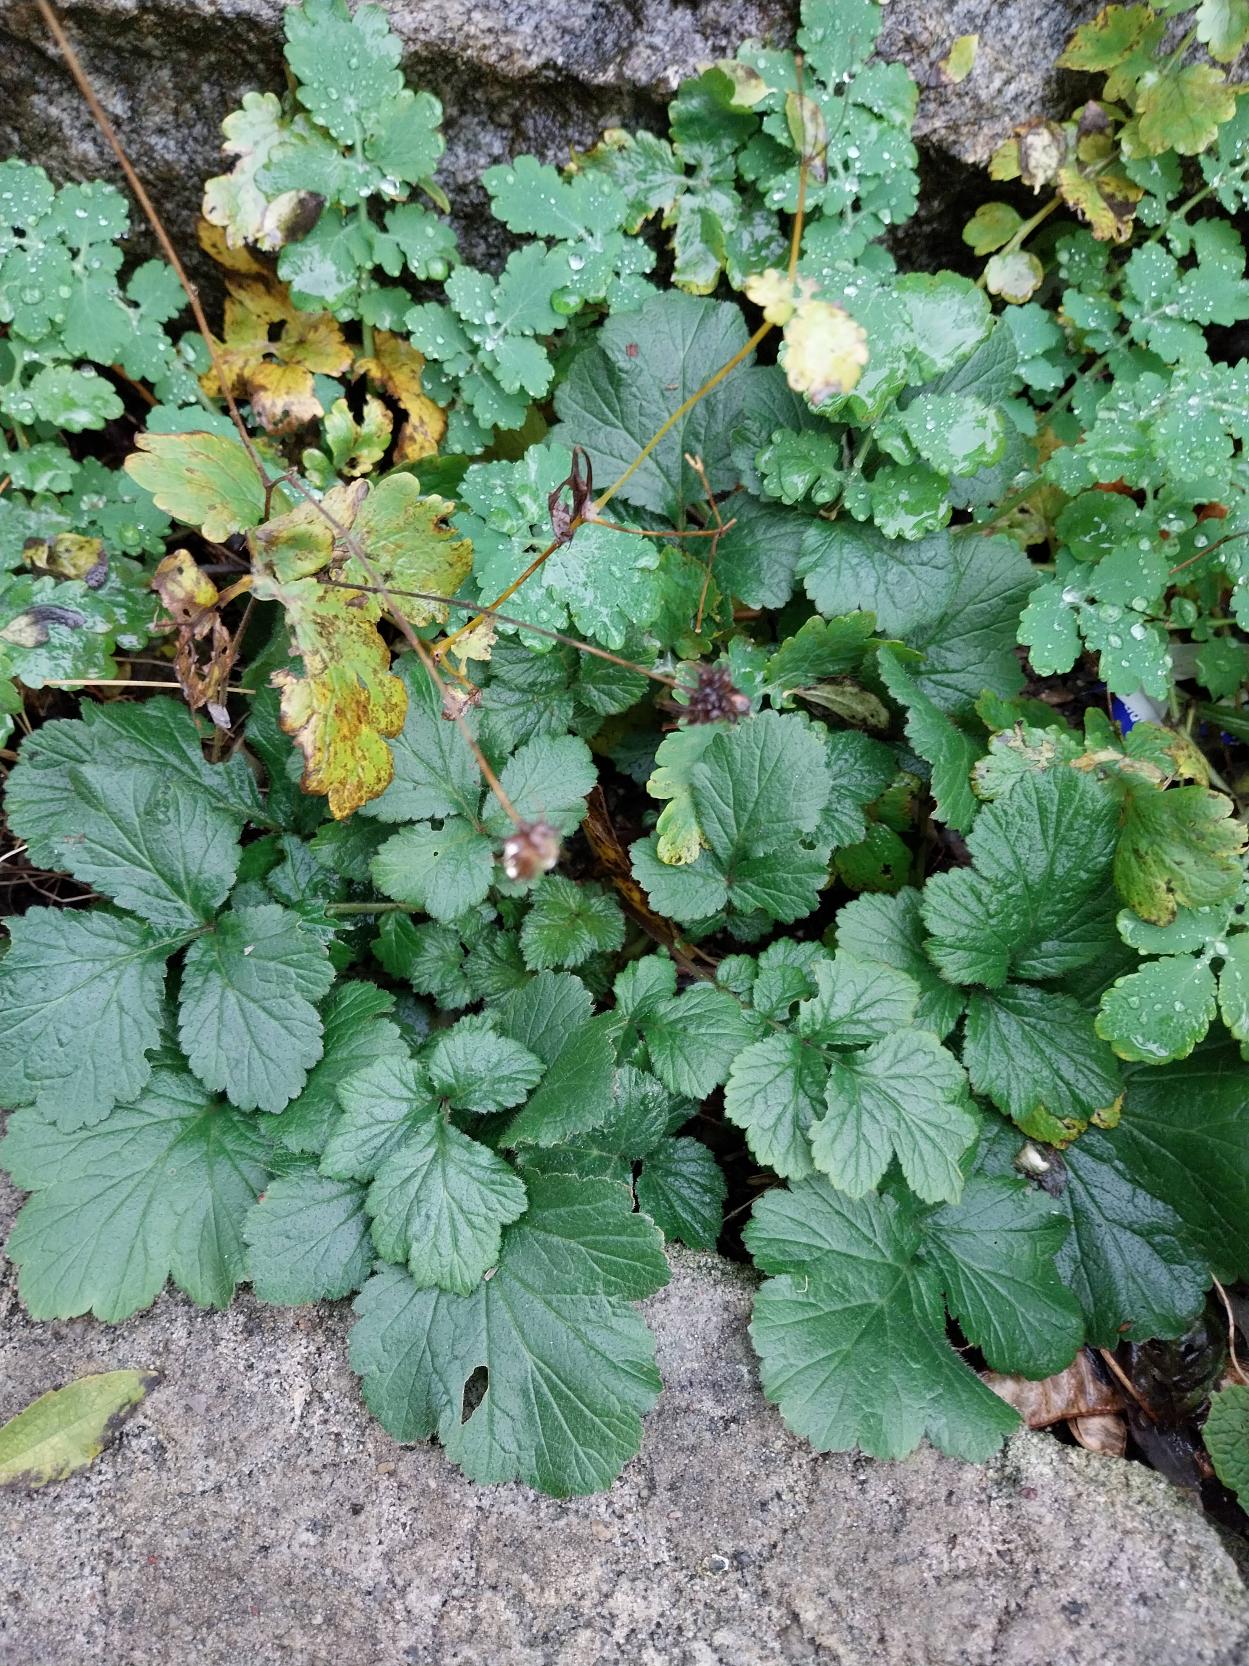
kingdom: Plantae
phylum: Tracheophyta
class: Magnoliopsida
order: Rosales
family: Rosaceae
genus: Geum
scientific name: Geum urbanum
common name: Feber-nellikerod
